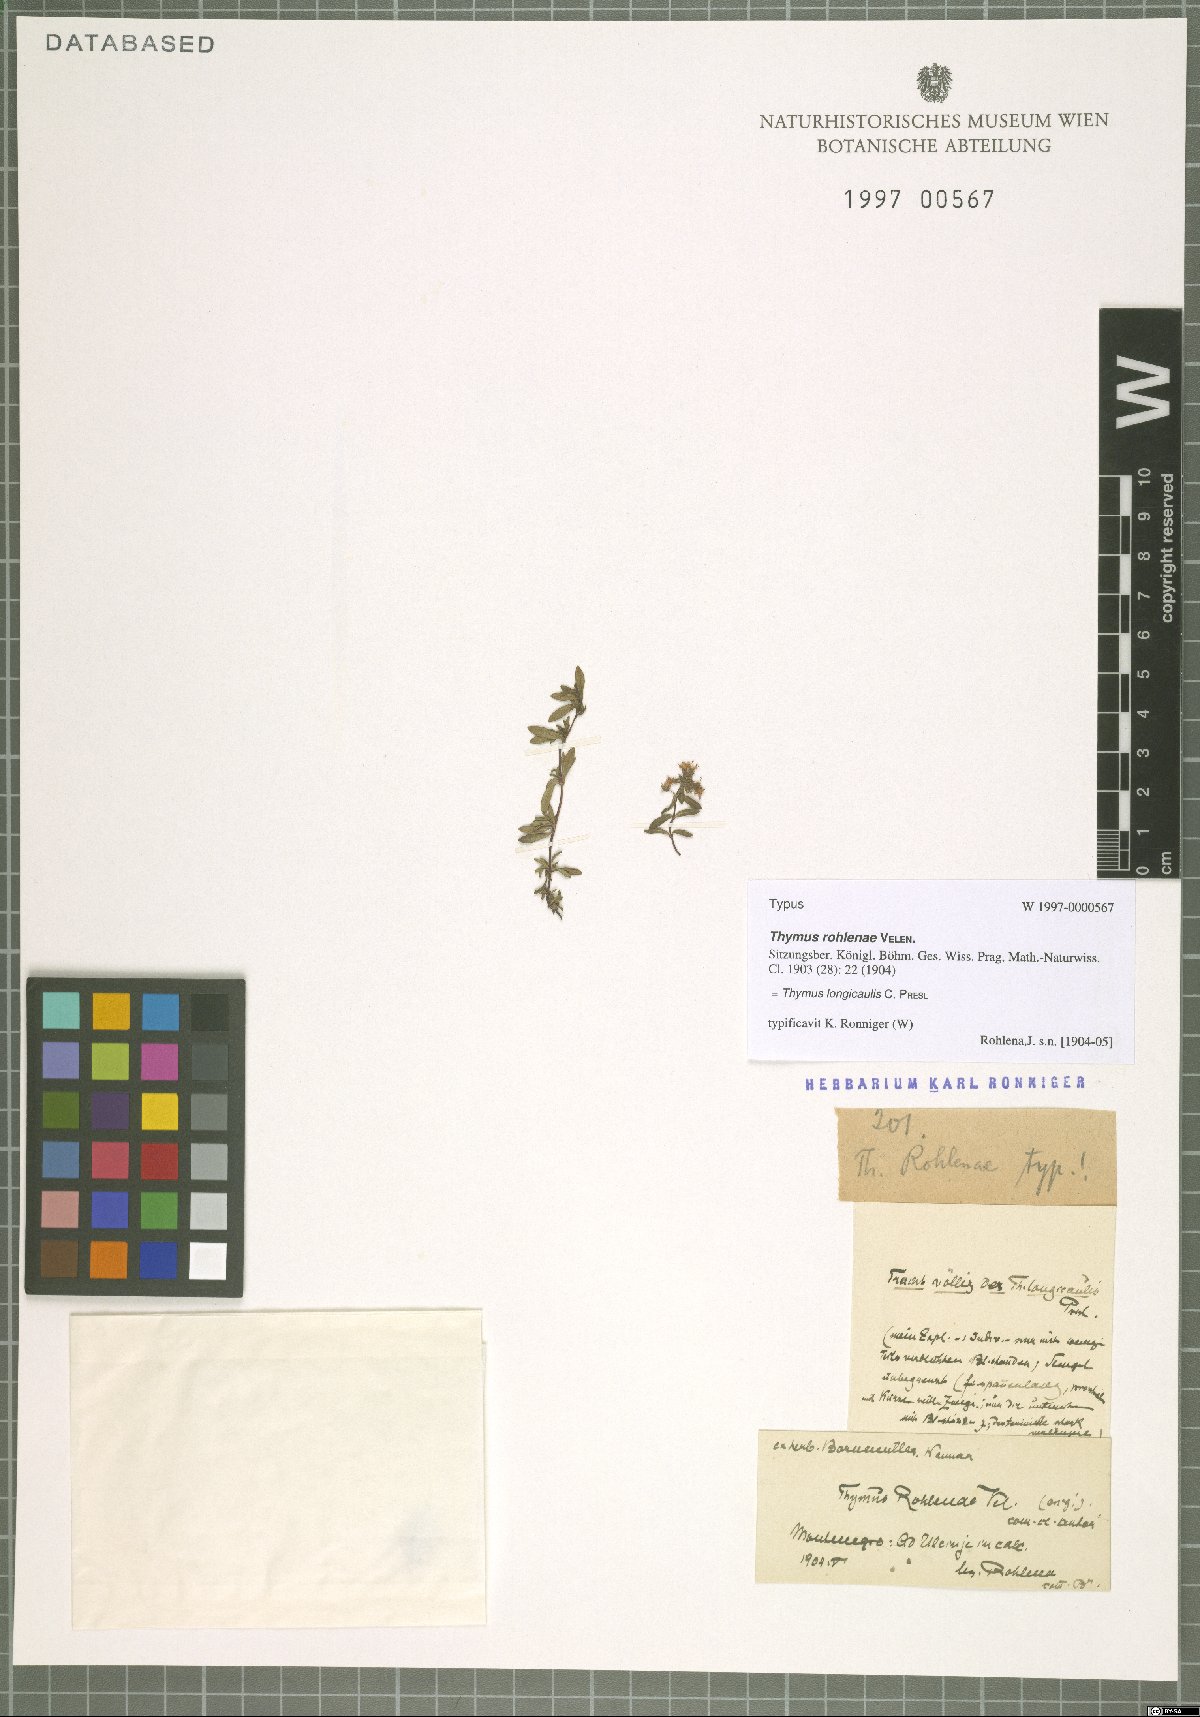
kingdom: Plantae
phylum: Tracheophyta
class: Magnoliopsida
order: Lamiales
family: Lamiaceae
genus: Thymus
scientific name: Thymus longicaulis
